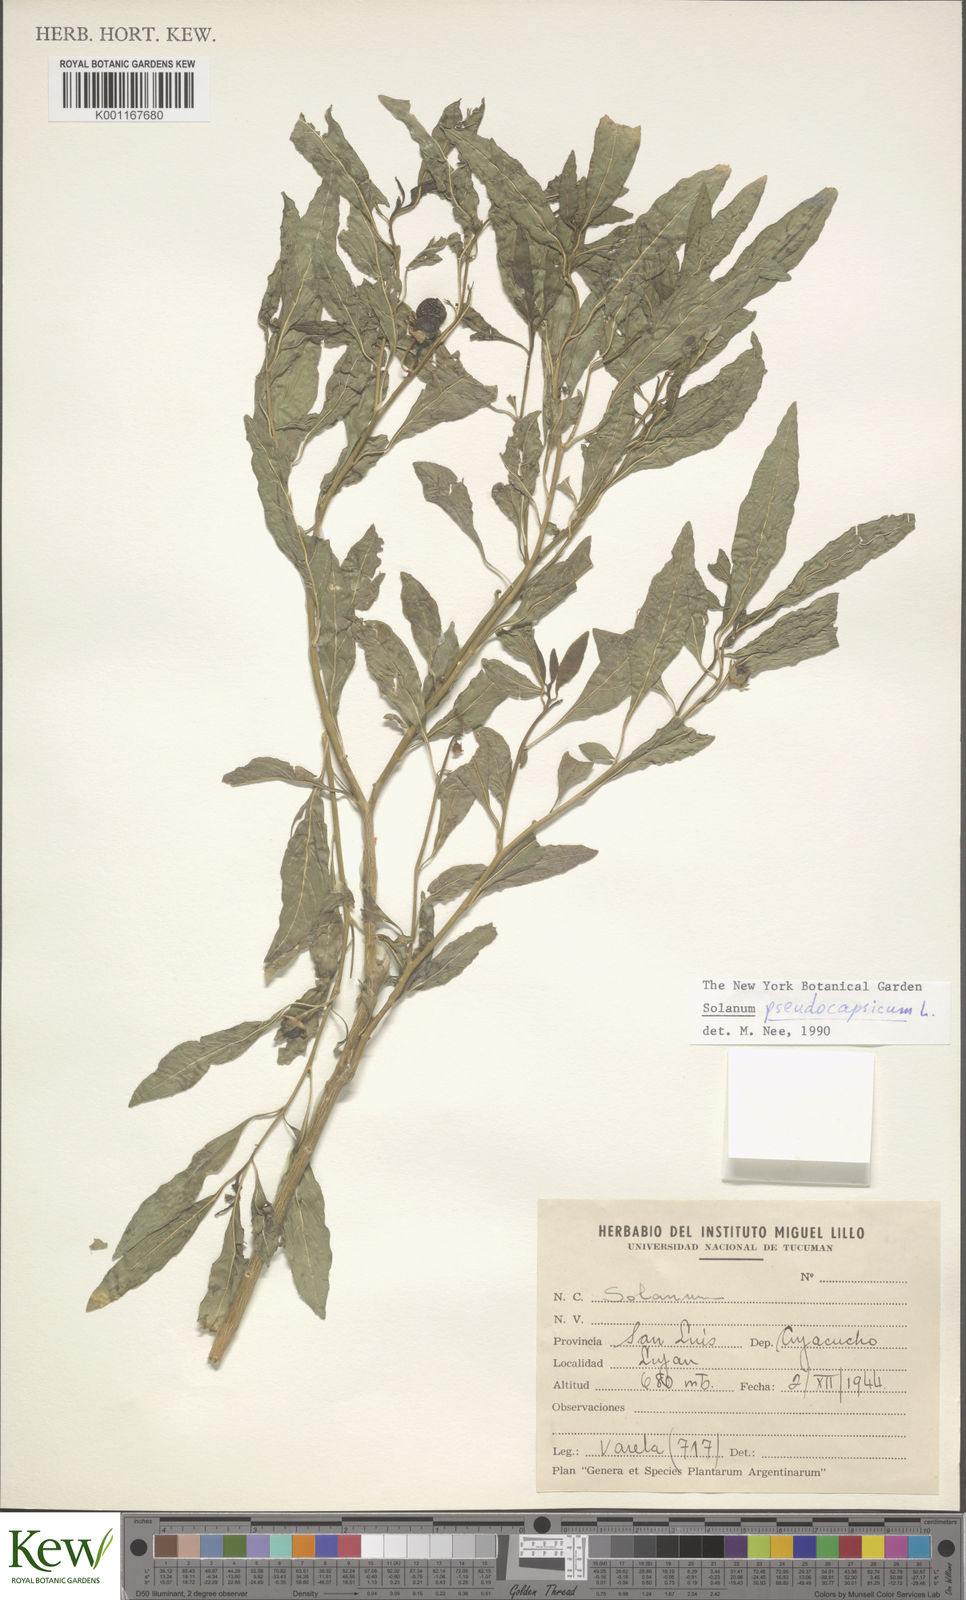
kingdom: Plantae
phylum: Tracheophyta
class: Magnoliopsida
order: Solanales
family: Solanaceae
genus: Solanum
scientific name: Solanum pseudocapsicum
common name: Jerusalem cherry
